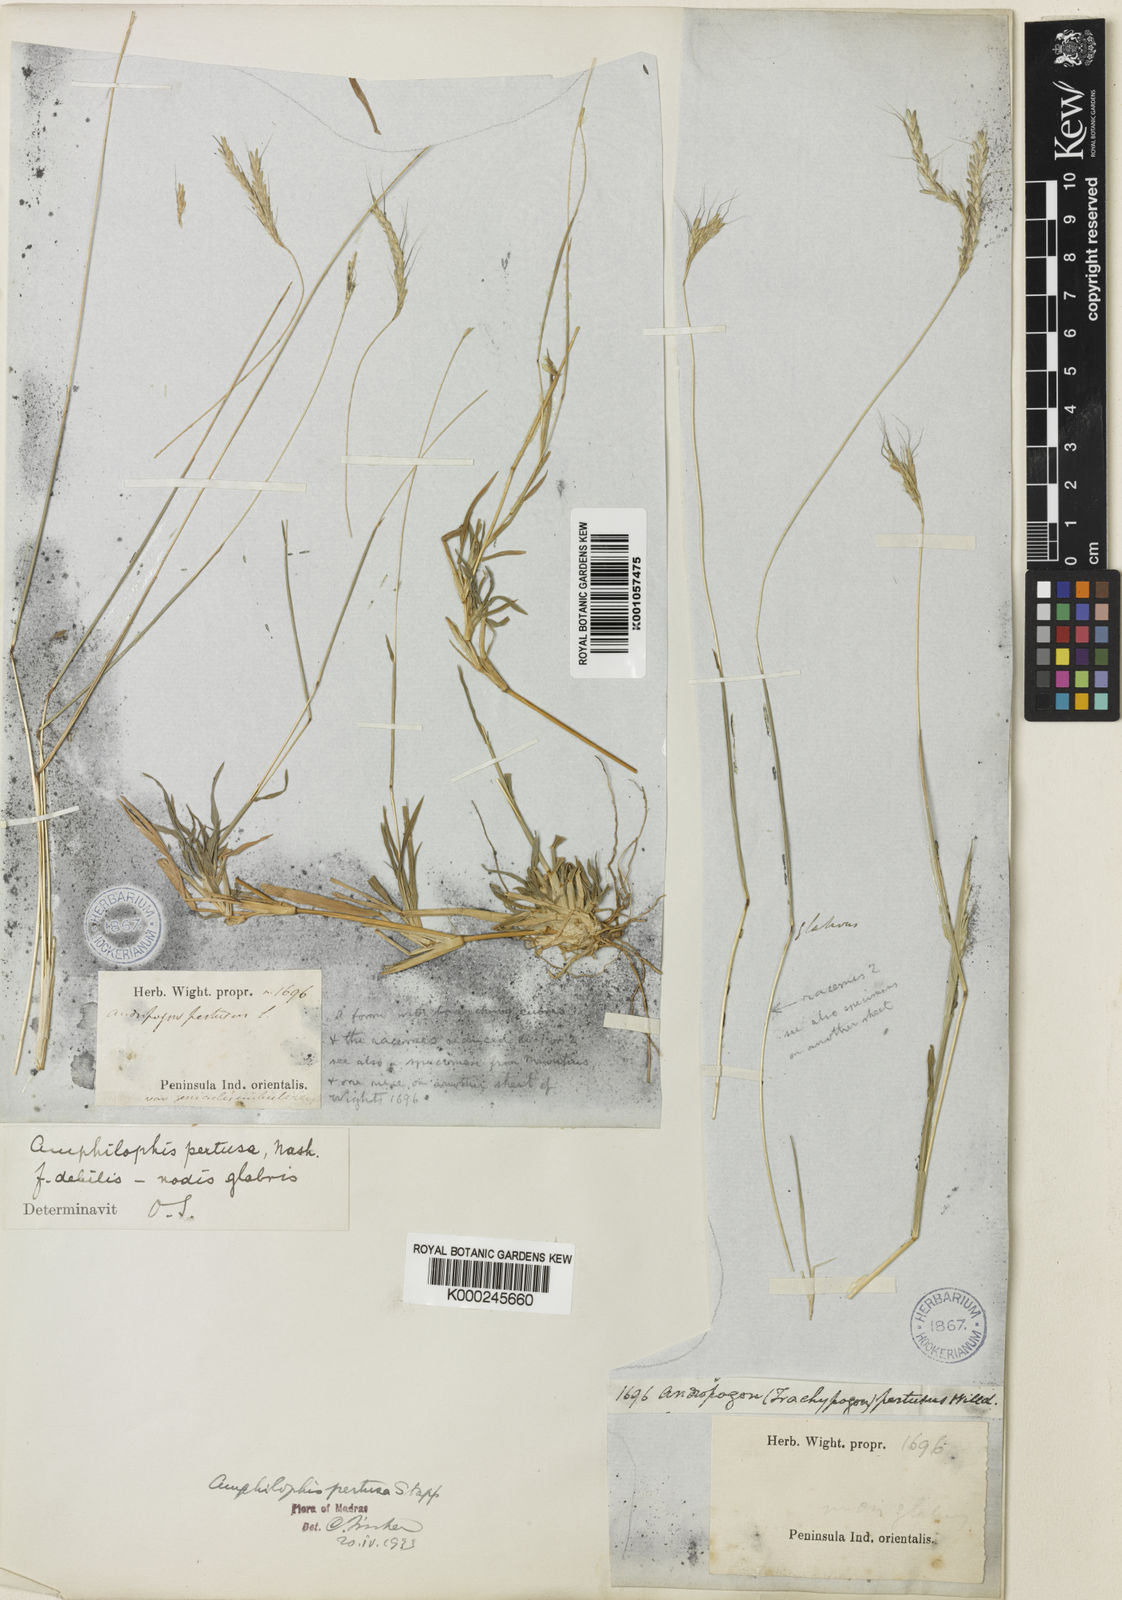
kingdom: Plantae
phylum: Tracheophyta
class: Liliopsida
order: Poales
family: Poaceae
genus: Bothriochloa
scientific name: Bothriochloa pertusa
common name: Pitted beardgrass
